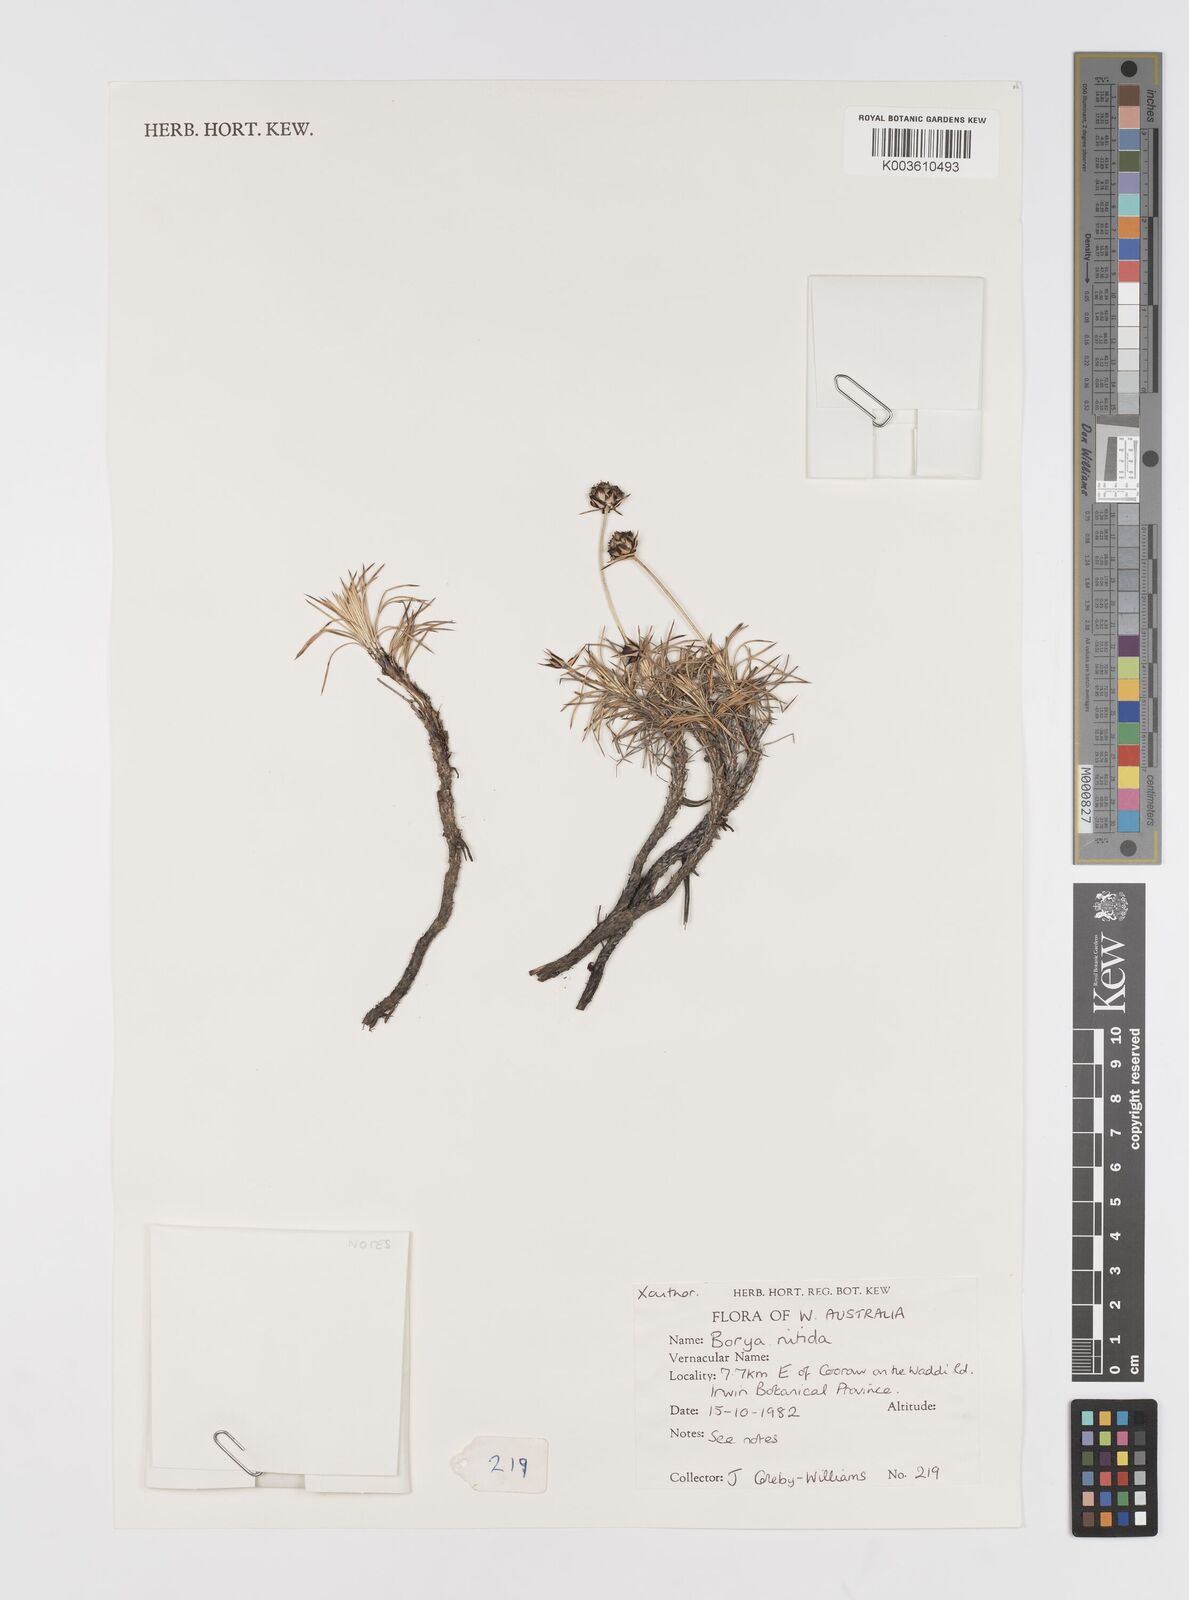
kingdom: Plantae
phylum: Tracheophyta
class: Liliopsida
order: Asparagales
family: Boryaceae
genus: Borya
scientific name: Borya nitida
